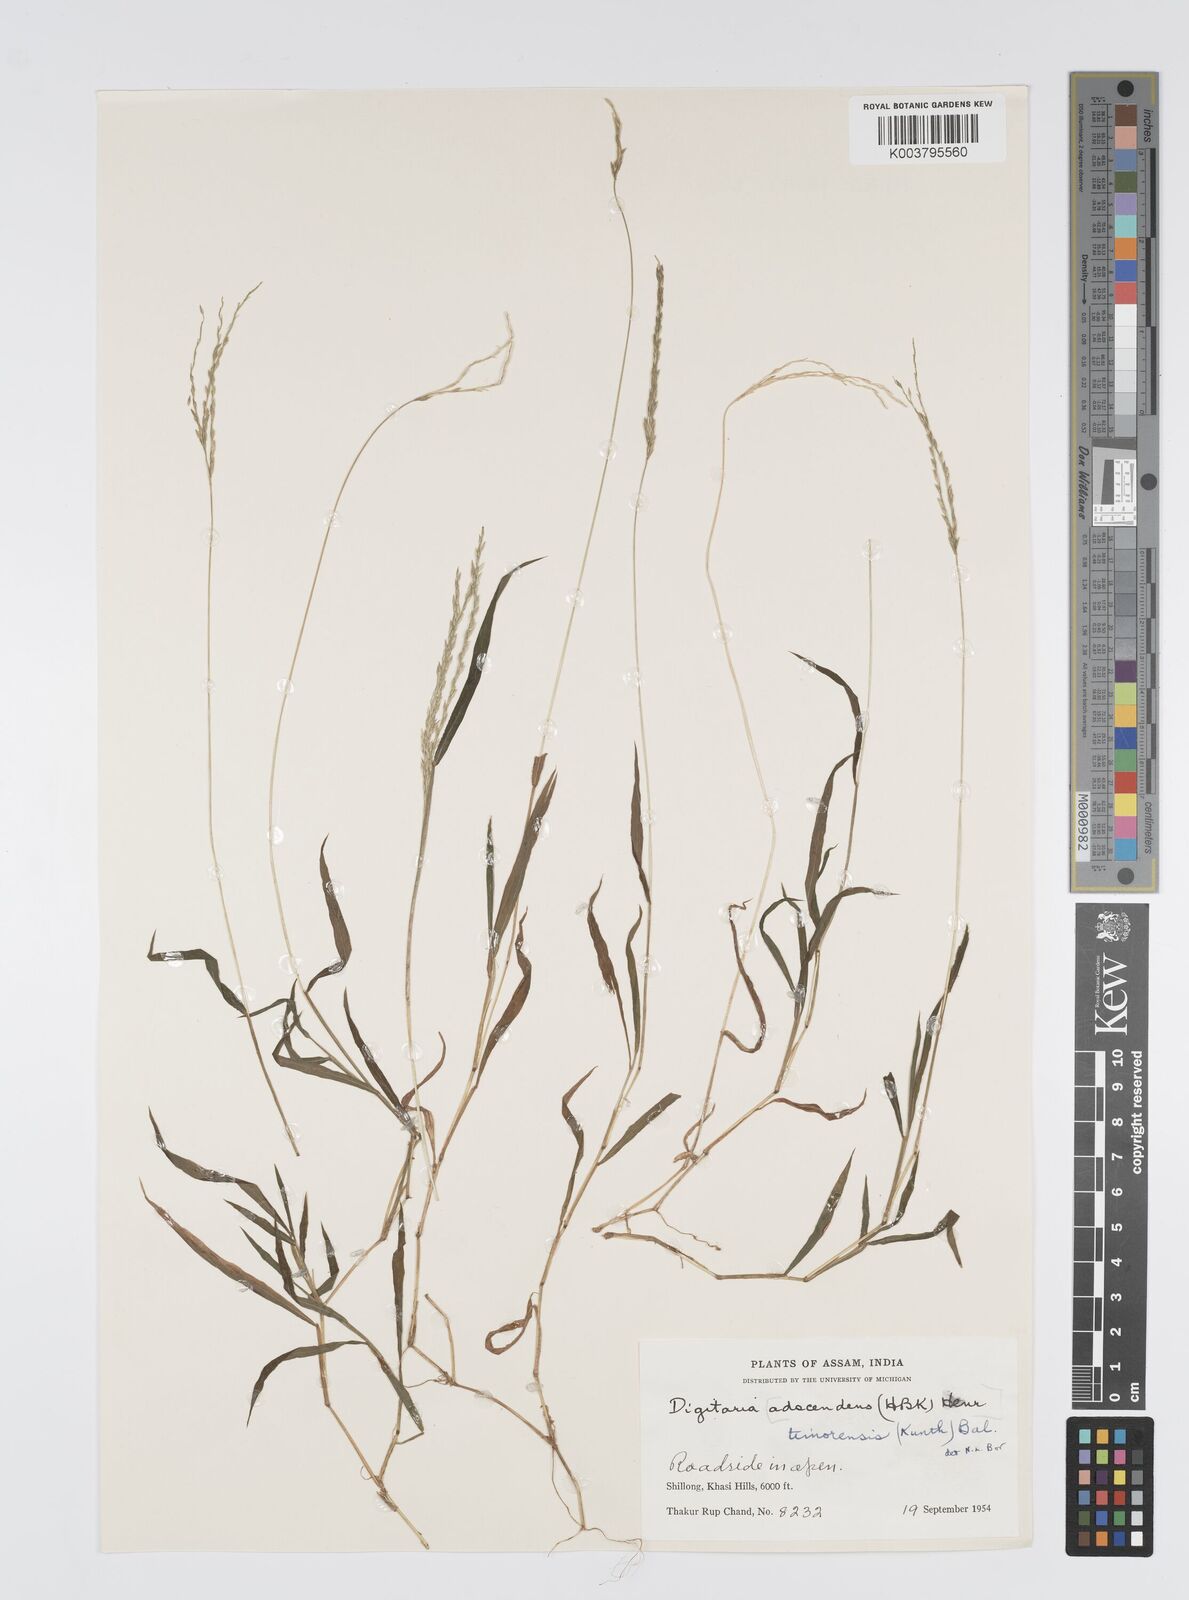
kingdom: Plantae
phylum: Tracheophyta
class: Liliopsida
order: Poales
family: Poaceae
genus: Digitaria
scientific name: Digitaria radicosa
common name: Trailing crabgrass
